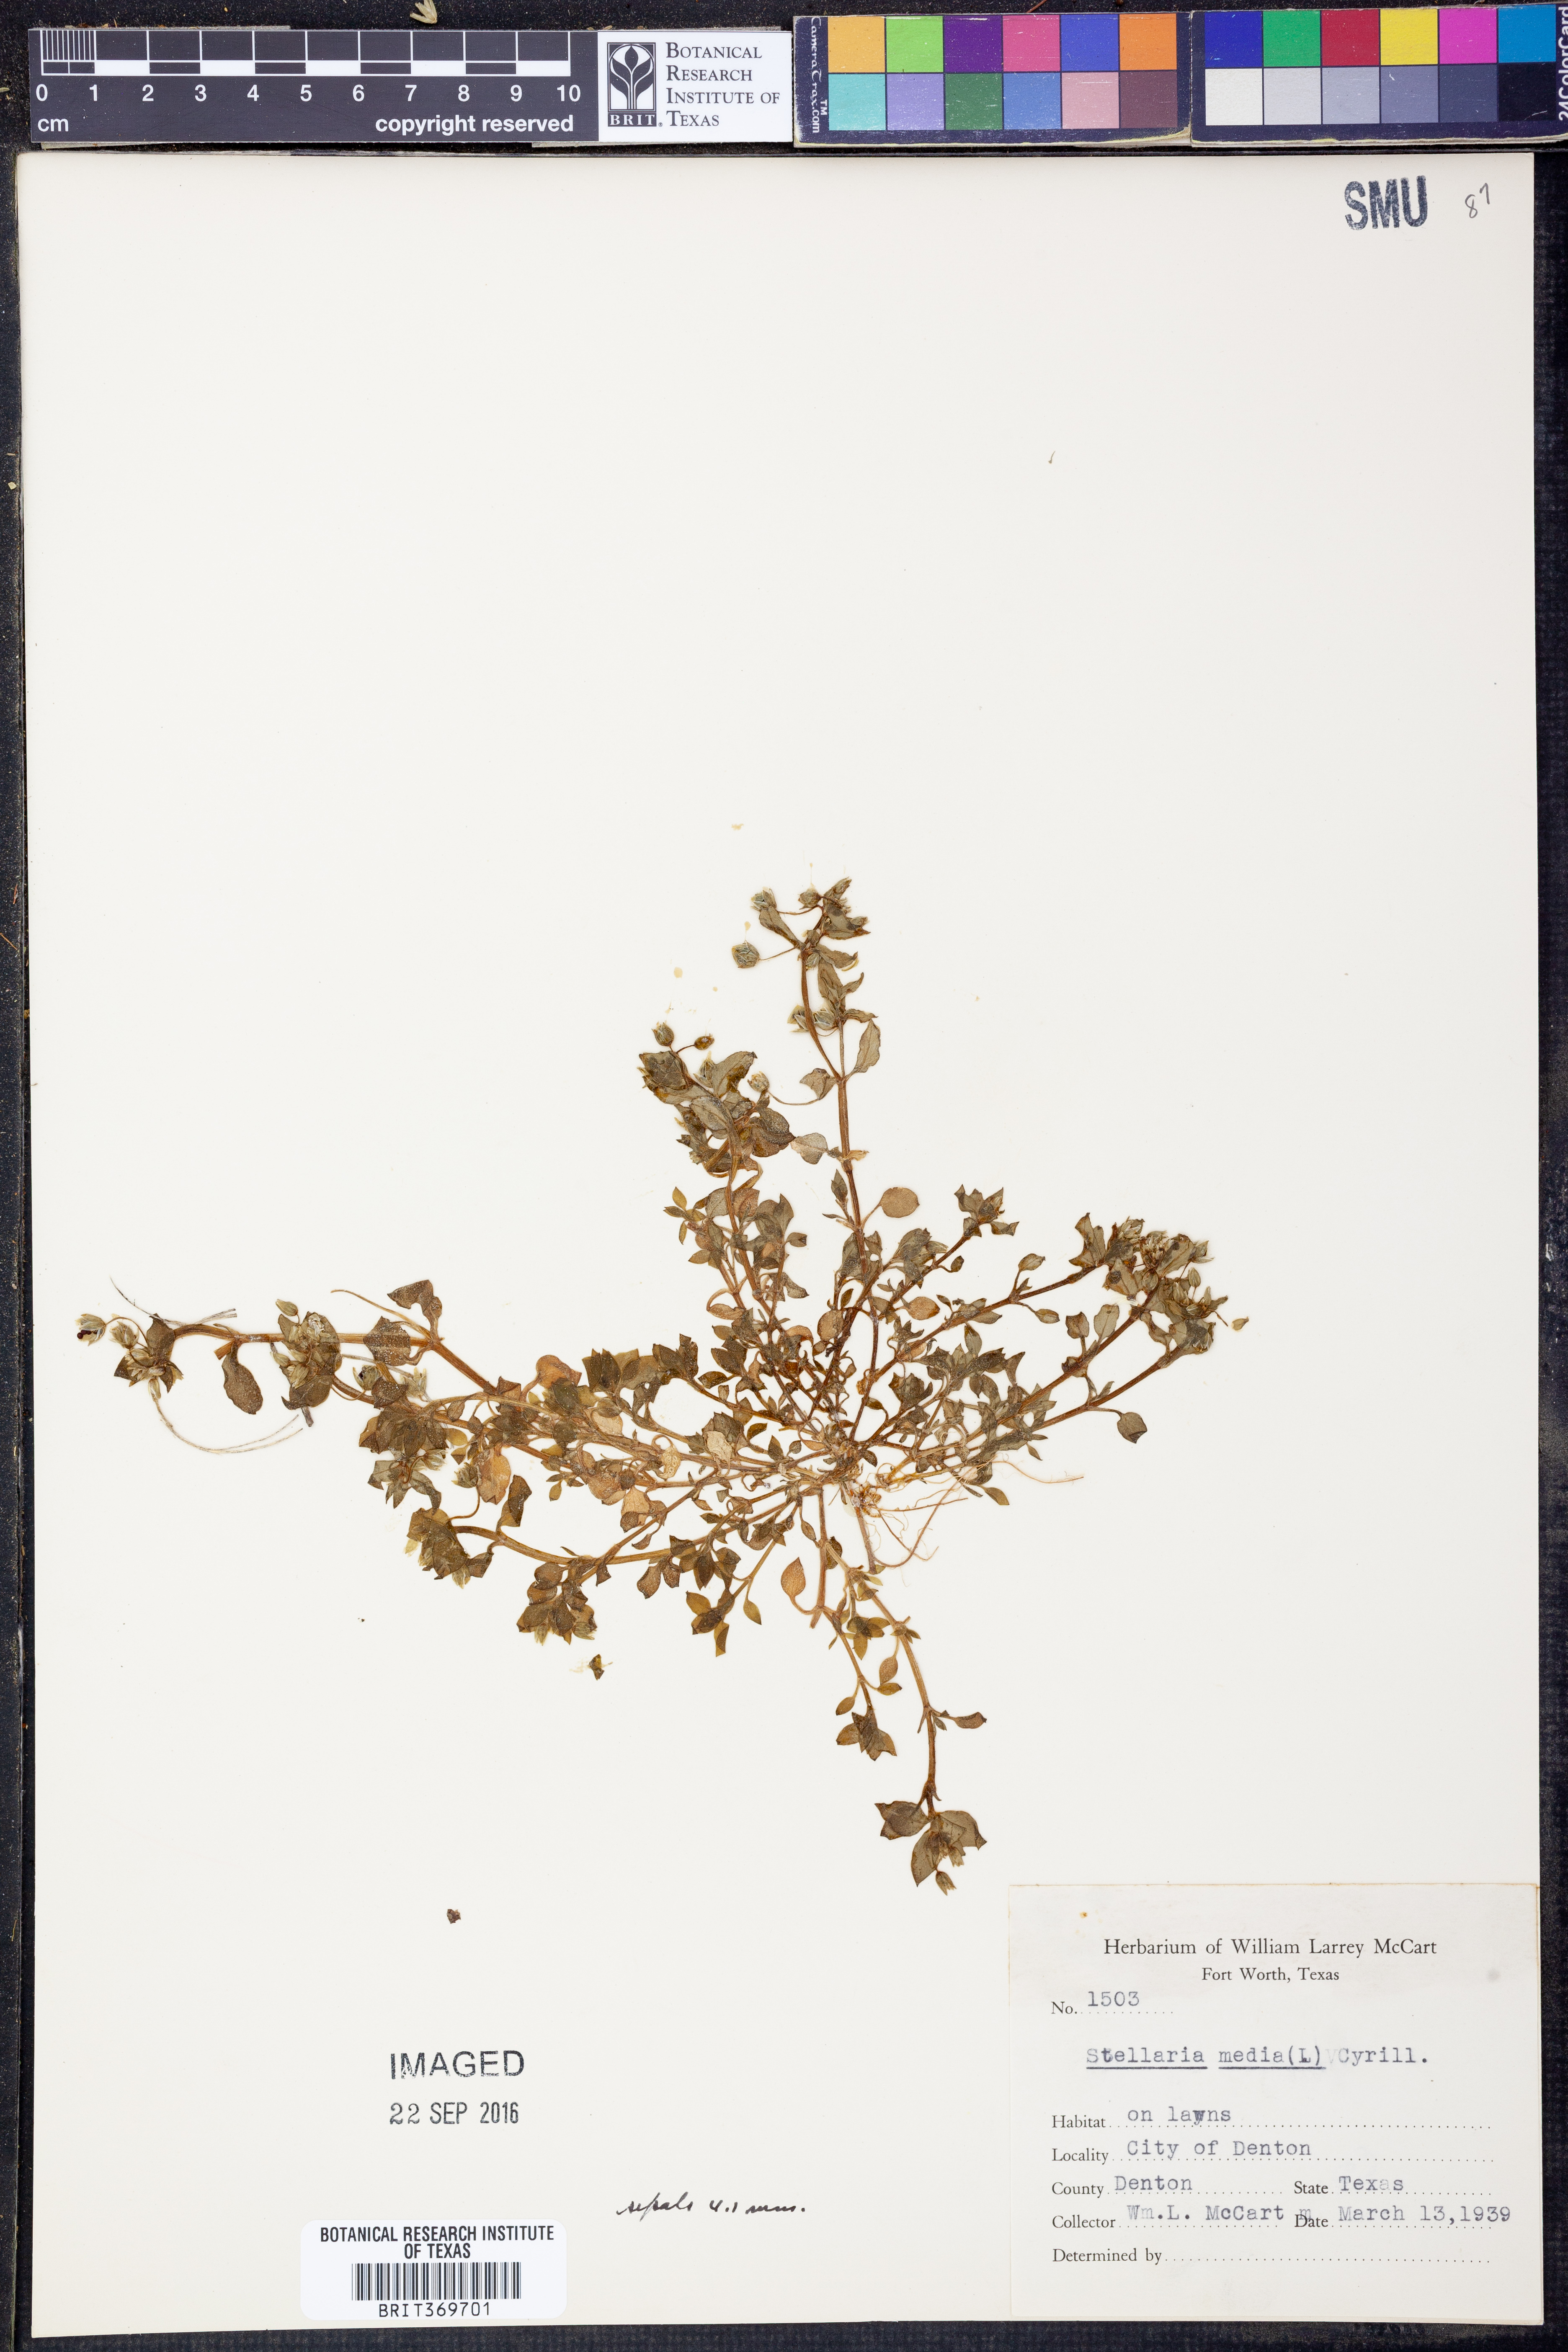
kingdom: Plantae
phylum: Tracheophyta
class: Magnoliopsida
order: Caryophyllales
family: Caryophyllaceae
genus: Stellaria
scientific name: Stellaria media
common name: Common chickweed
